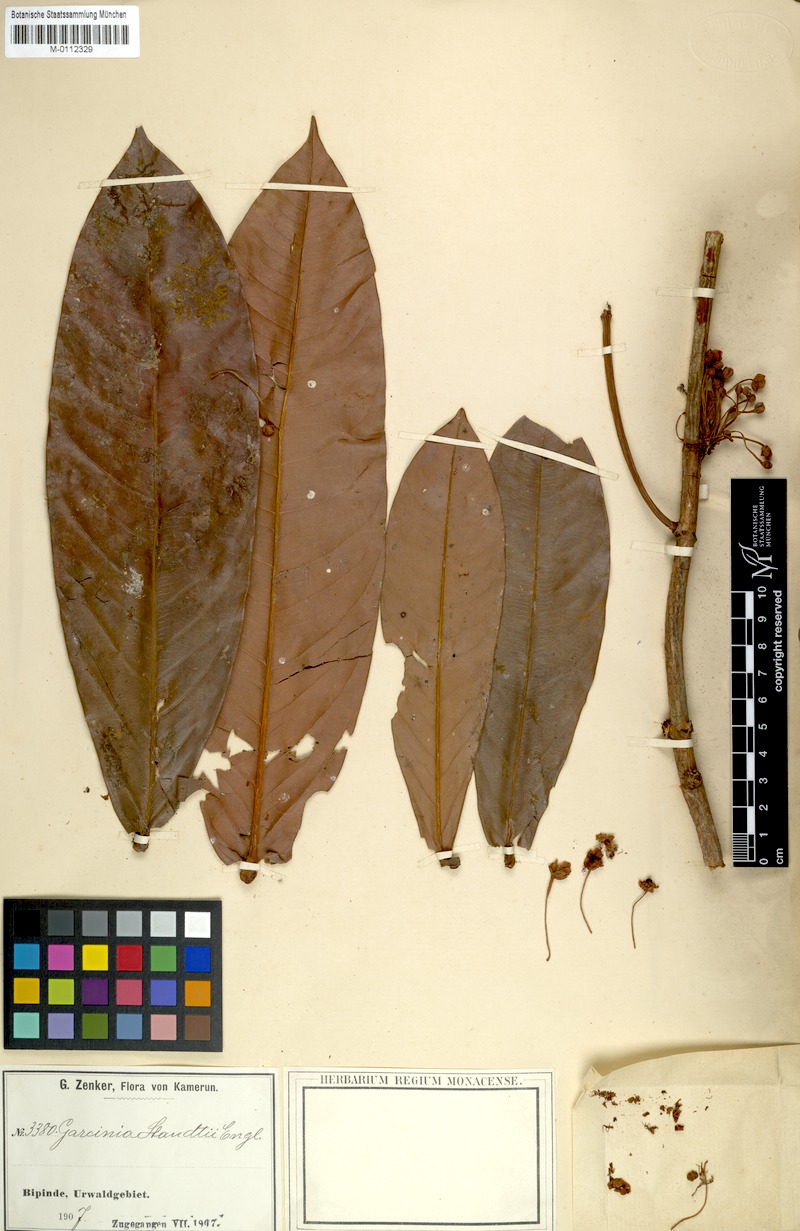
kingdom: Plantae
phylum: Tracheophyta
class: Magnoliopsida
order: Malpighiales
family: Clusiaceae
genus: Garcinia
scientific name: Garcinia staudtii
